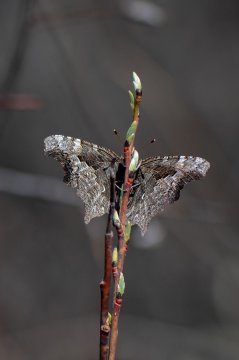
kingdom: Animalia
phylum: Arthropoda
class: Insecta
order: Lepidoptera
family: Nymphalidae
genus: Polygonia
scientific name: Polygonia progne
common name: Gray Comma
